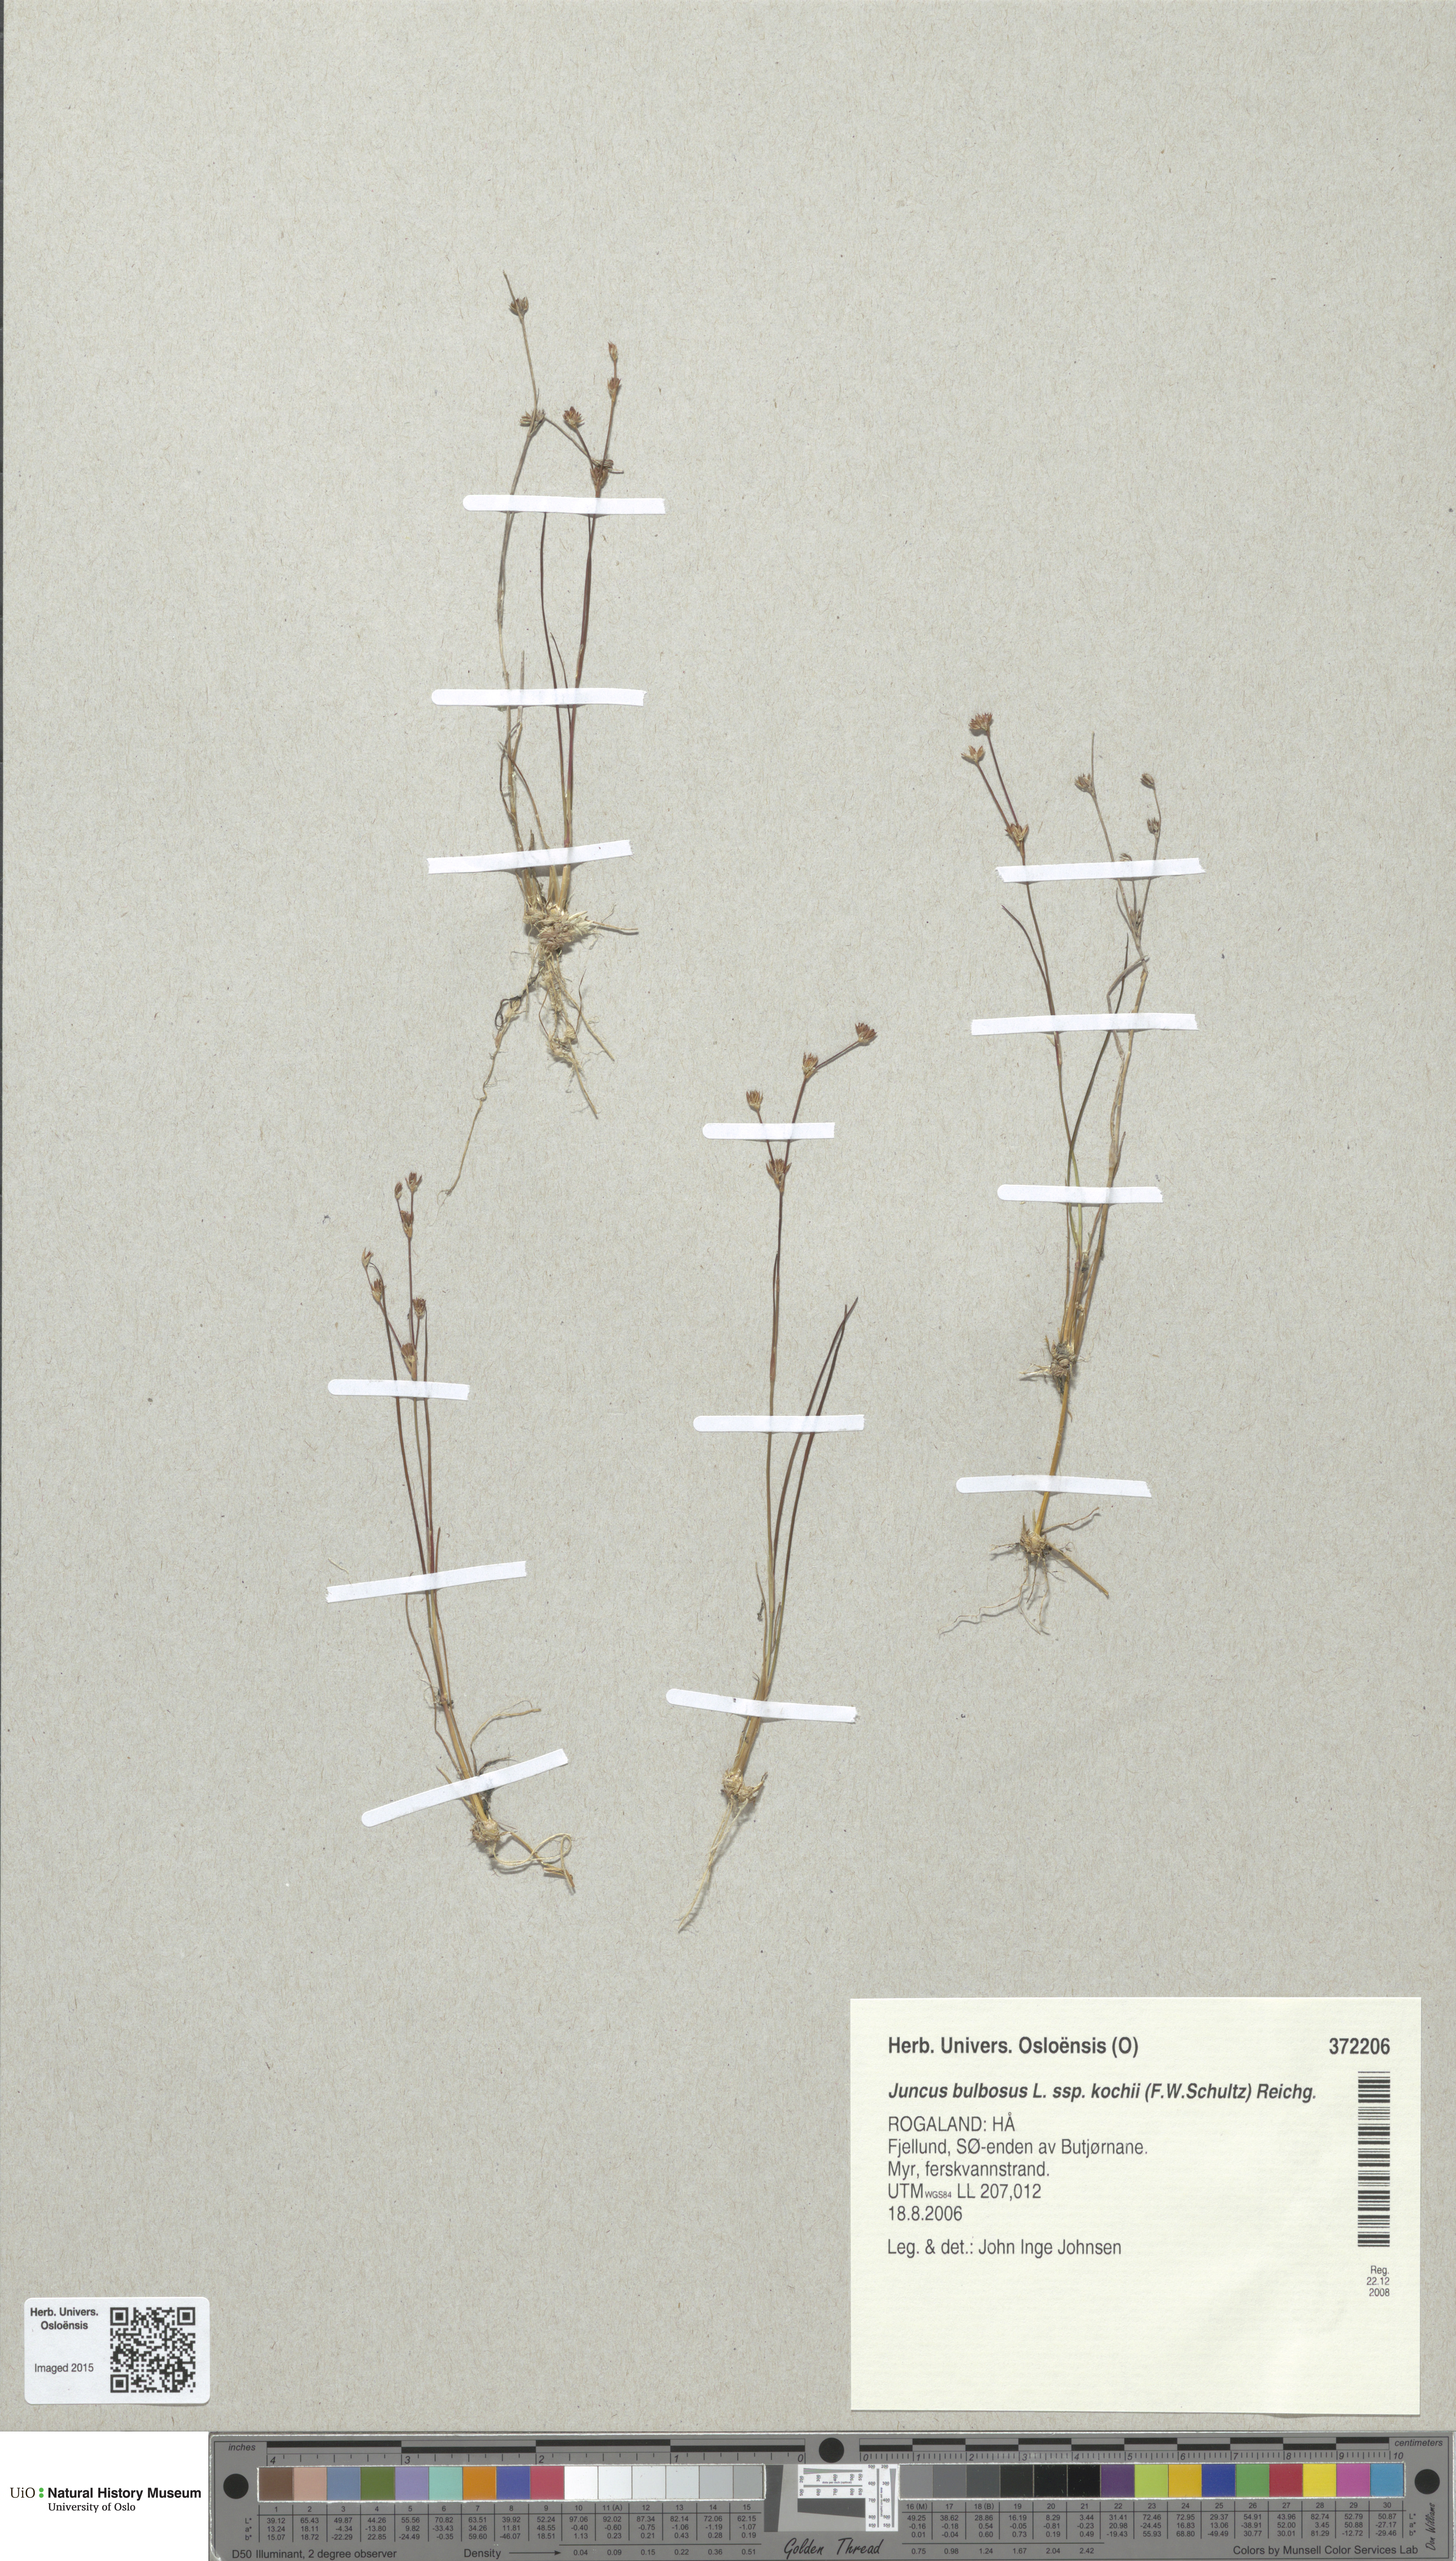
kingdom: Plantae
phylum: Tracheophyta
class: Liliopsida
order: Poales
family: Juncaceae
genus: Juncus
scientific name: Juncus bulbosus
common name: Bulbous rush
